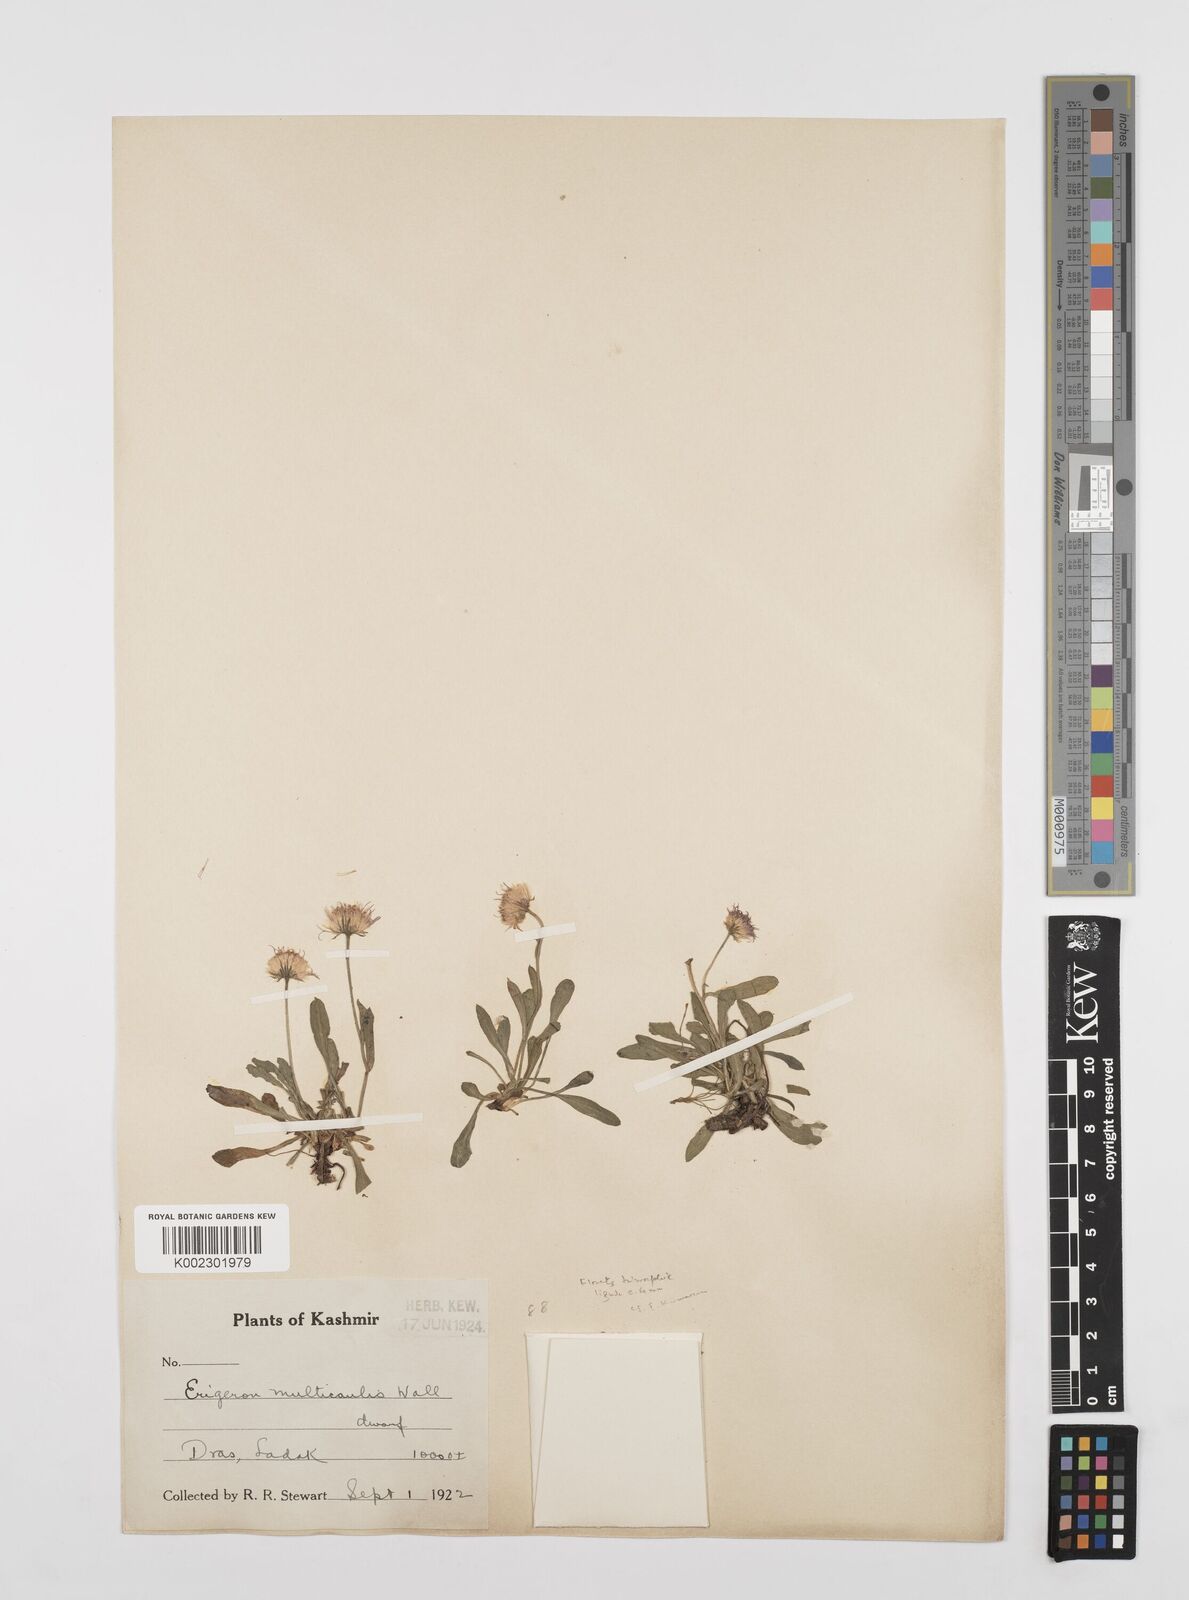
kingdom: Plantae
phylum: Tracheophyta
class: Magnoliopsida
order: Asterales
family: Asteraceae
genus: Erigeron
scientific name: Erigeron alpinus
